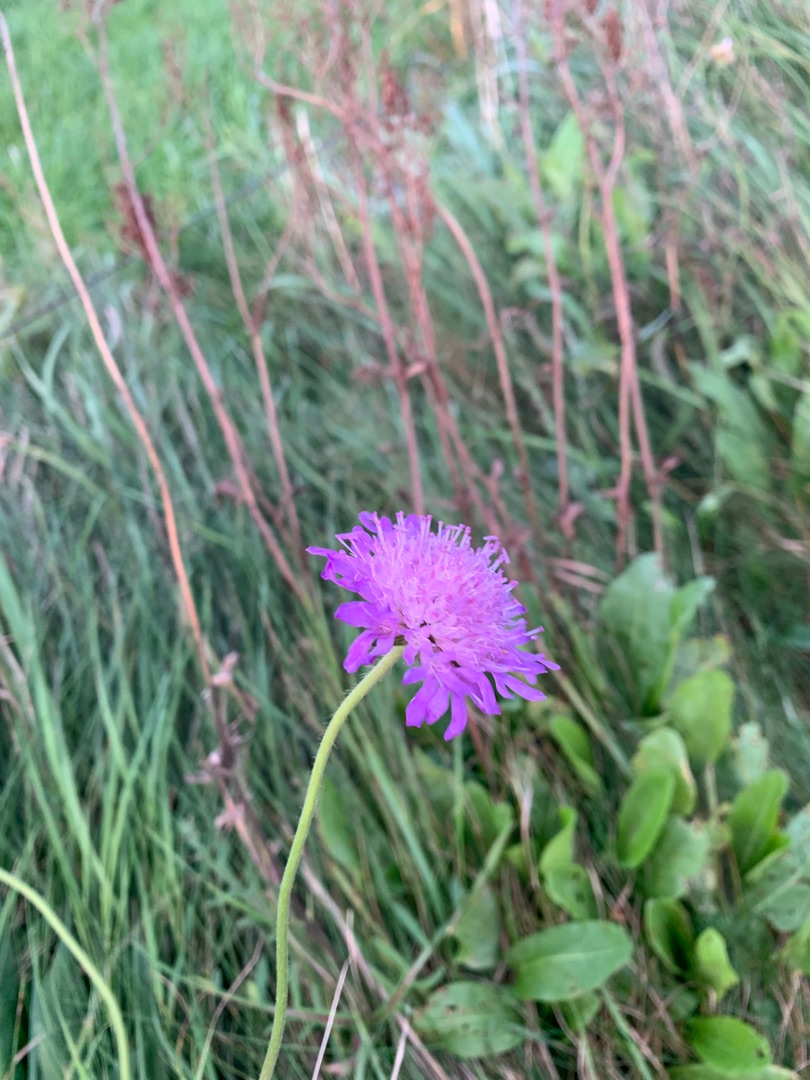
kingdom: Plantae
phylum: Tracheophyta
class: Magnoliopsida
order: Dipsacales
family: Caprifoliaceae
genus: Knautia
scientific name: Knautia arvensis
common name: Blåhat
